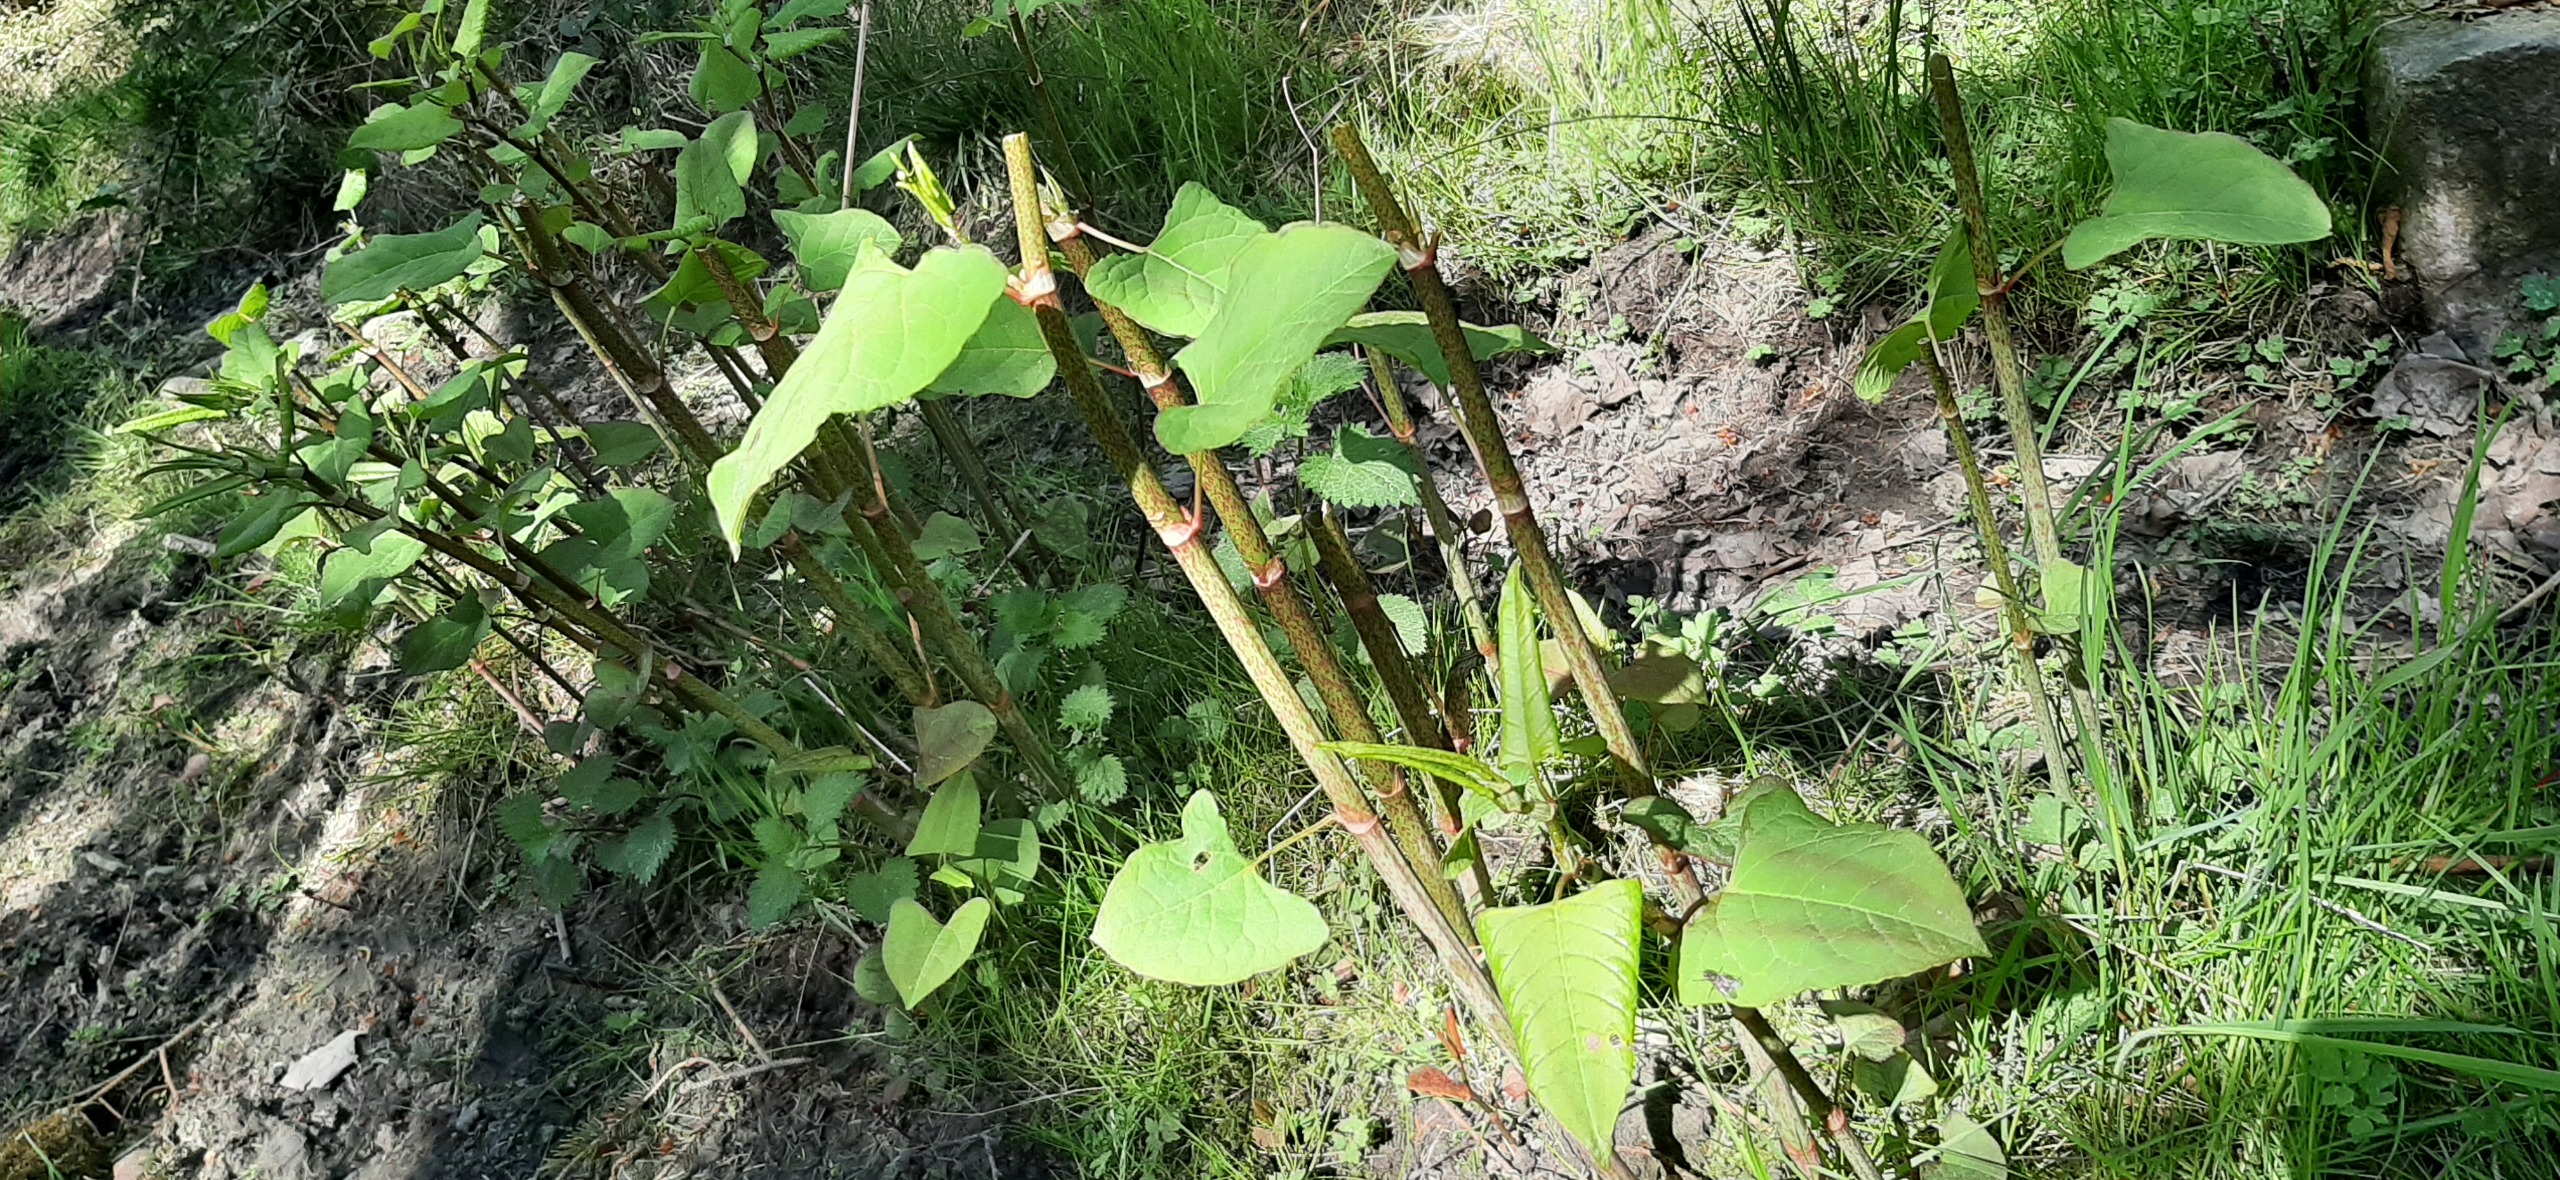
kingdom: Plantae
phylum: Tracheophyta
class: Magnoliopsida
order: Caryophyllales
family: Polygonaceae
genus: Reynoutria
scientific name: Reynoutria
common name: Pileurt (Reynoutria-slægten)
